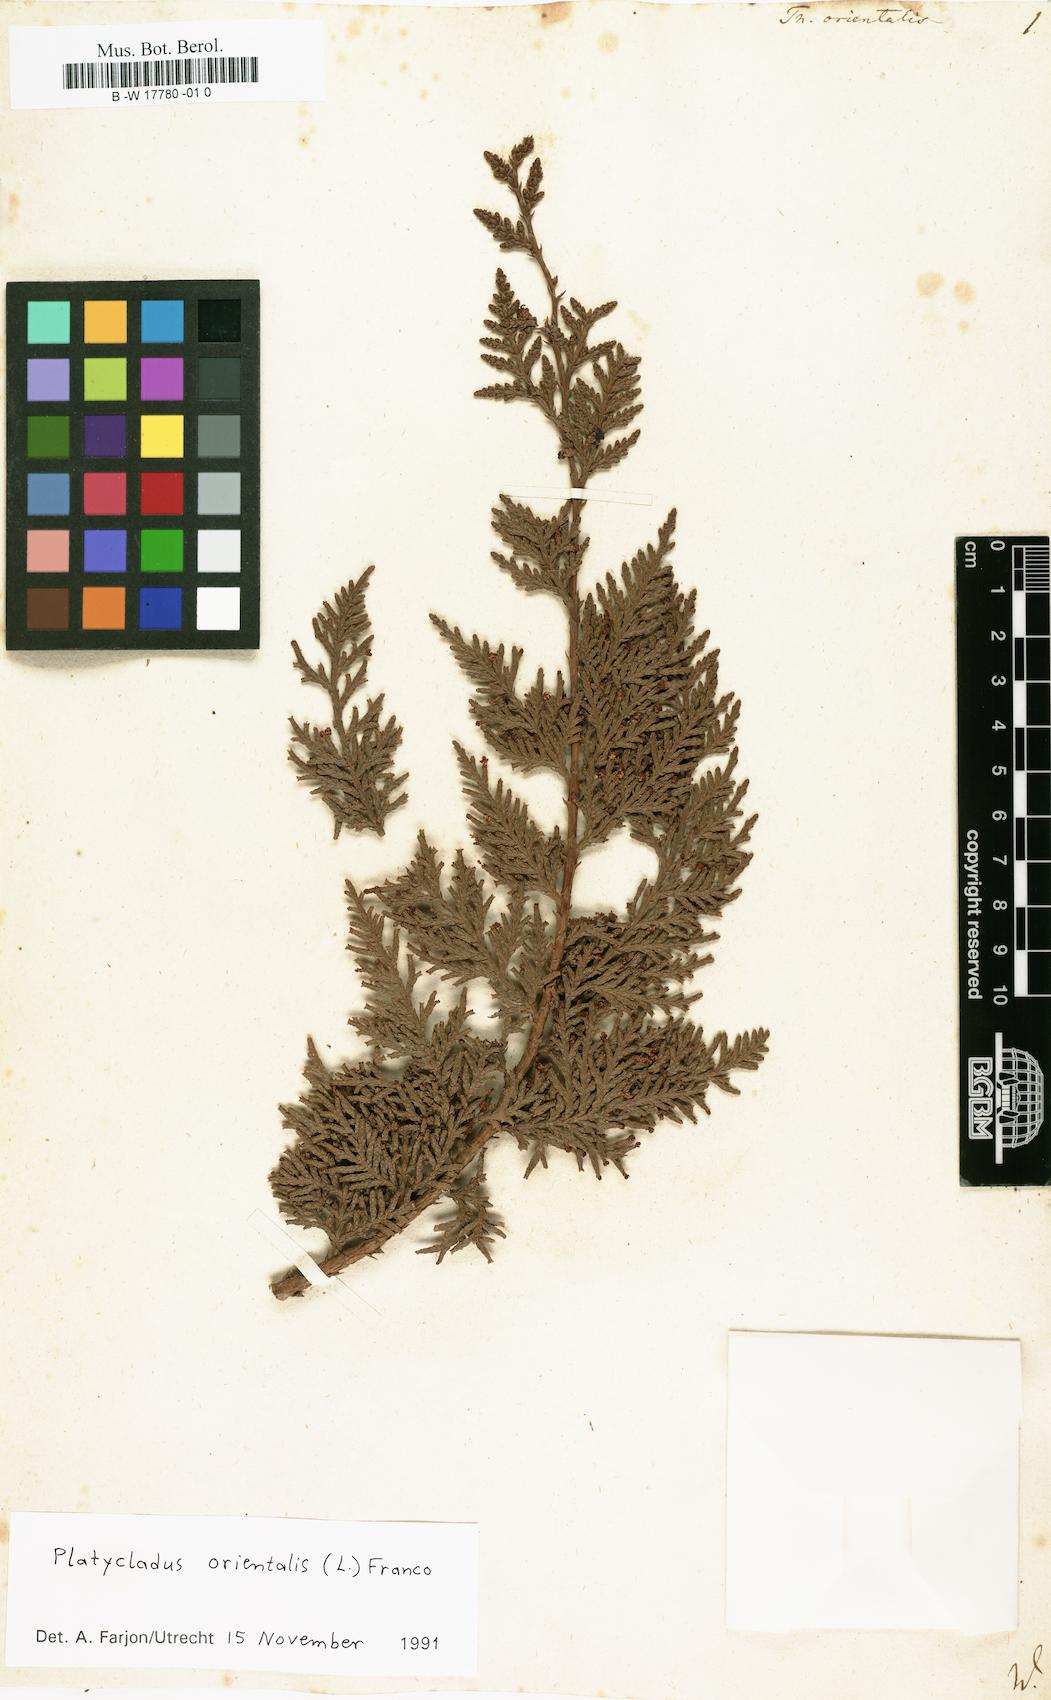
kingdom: Plantae
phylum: Tracheophyta
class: Pinopsida
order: Pinales
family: Cupressaceae
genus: Platycladus
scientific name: Platycladus orientalis
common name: Chinese thuja
